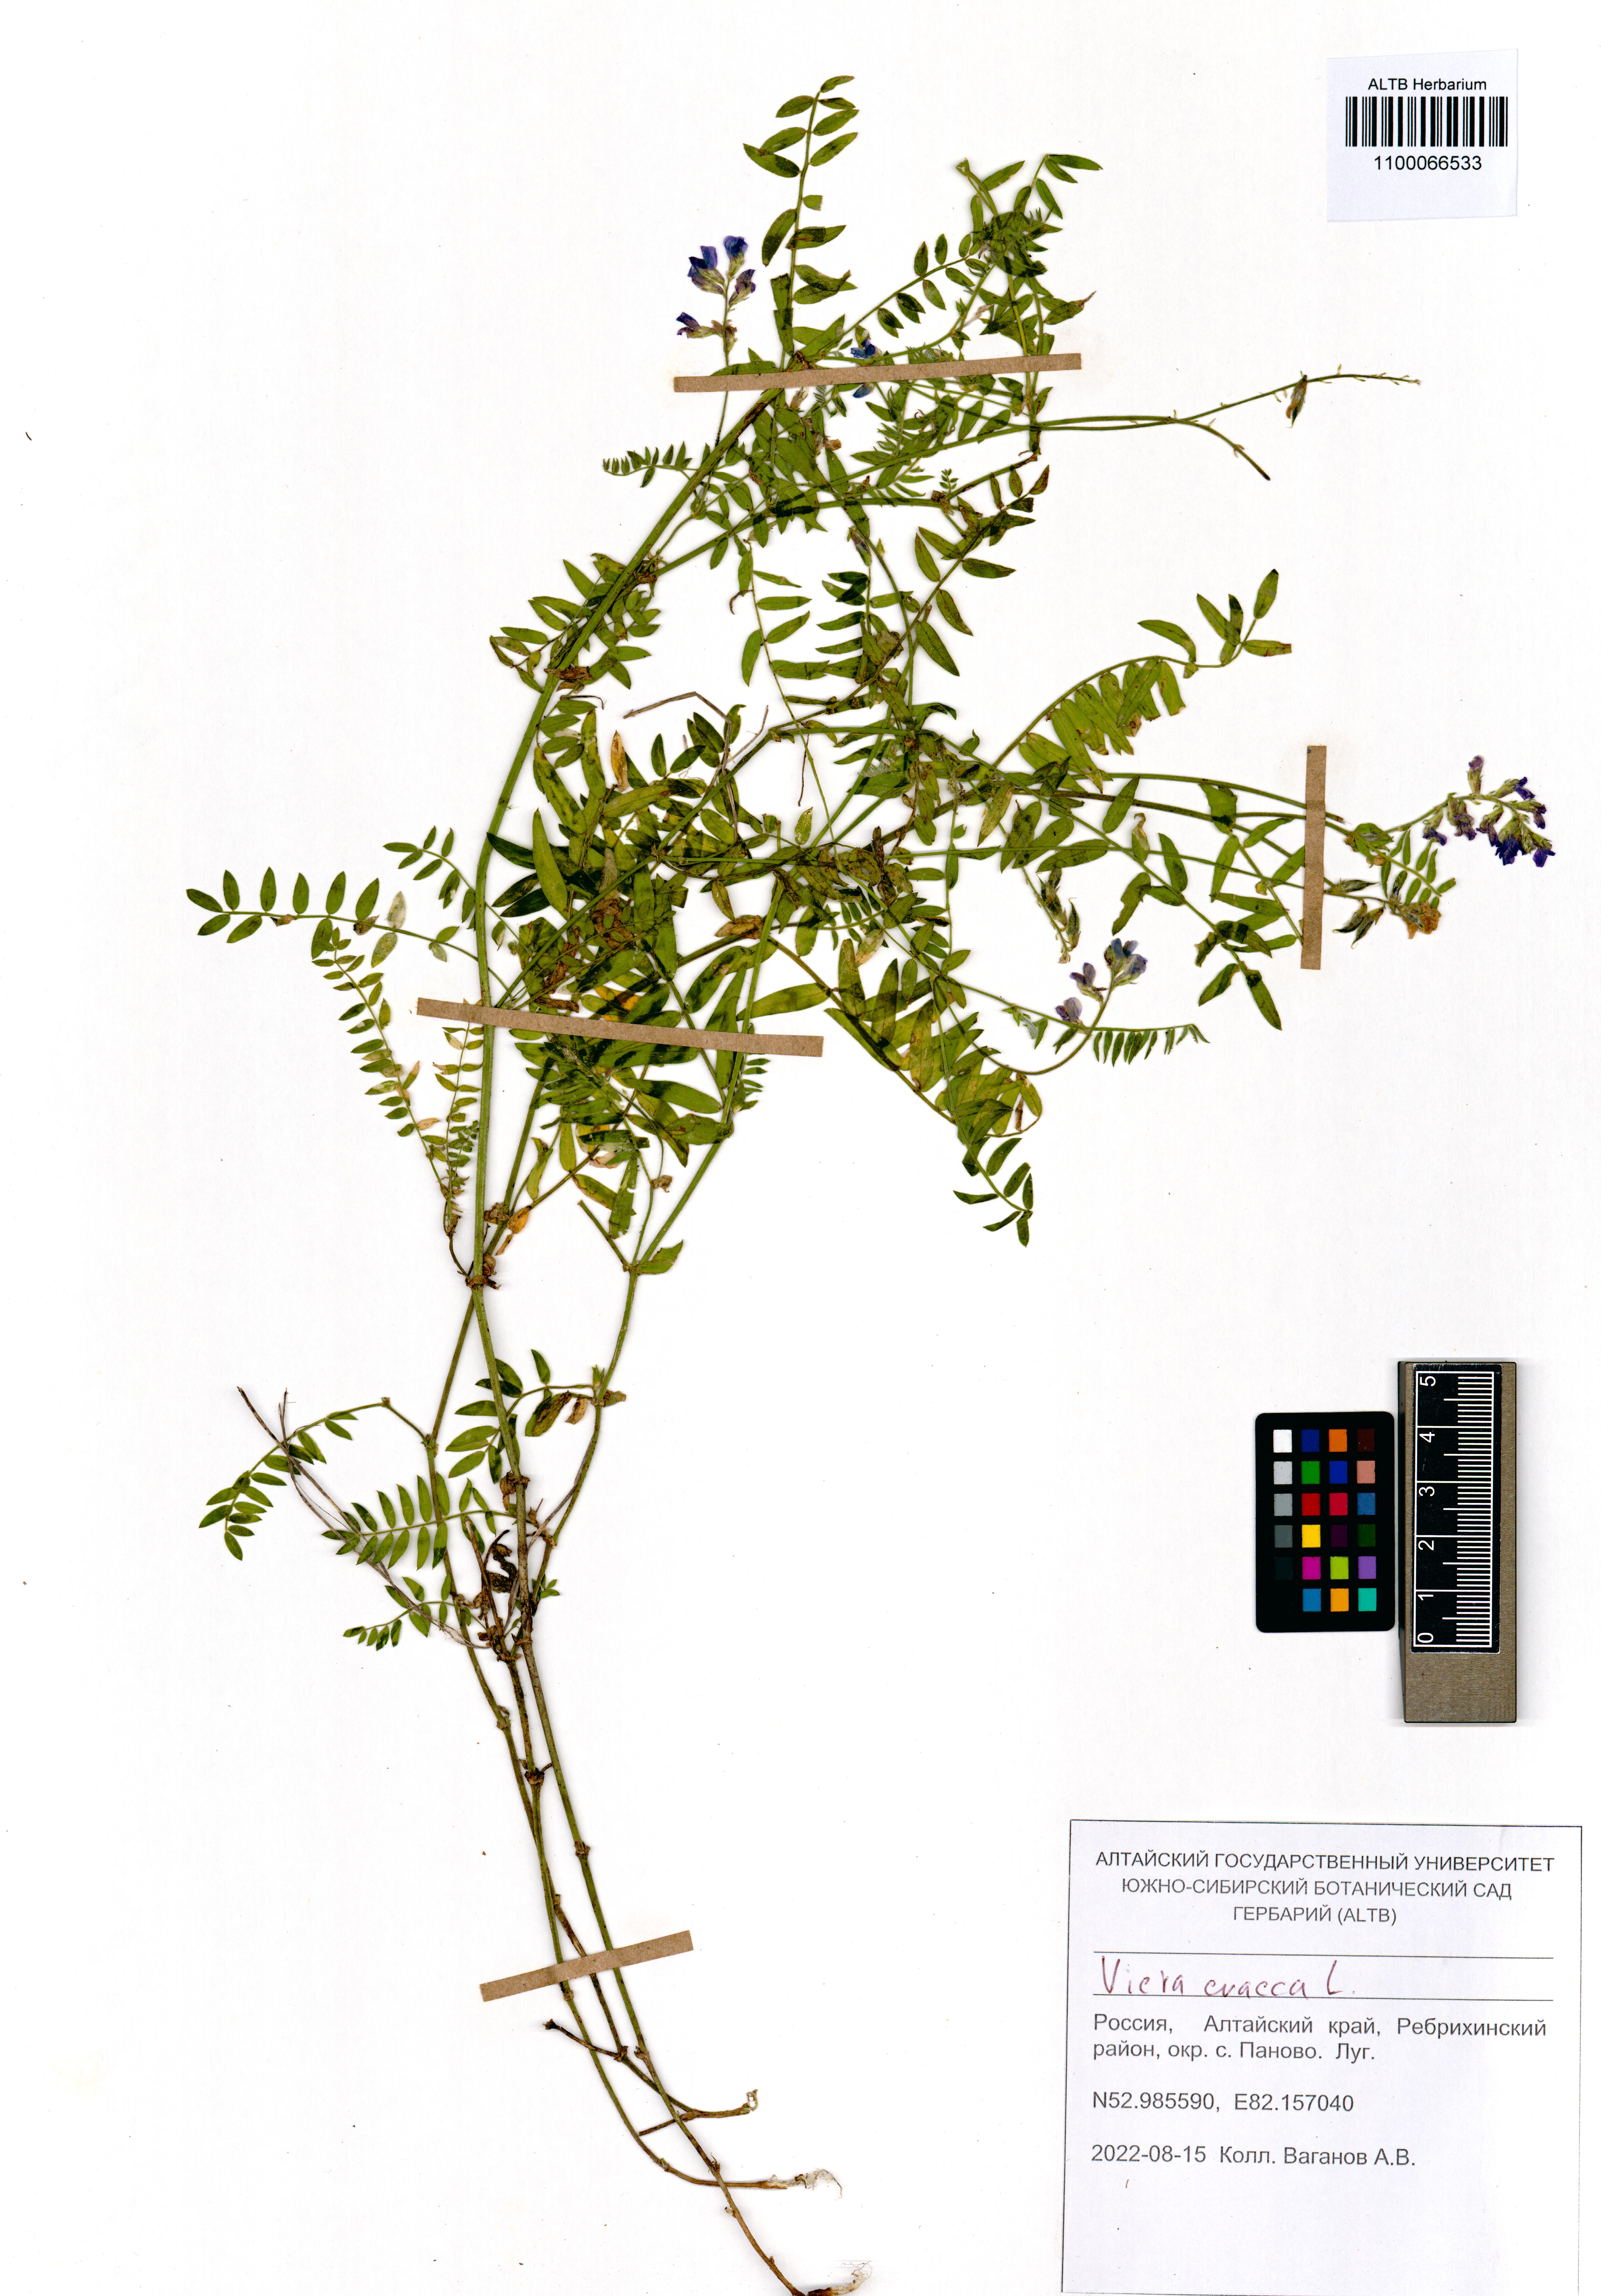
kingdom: Plantae
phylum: Tracheophyta
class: Magnoliopsida
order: Fabales
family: Fabaceae
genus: Vicia
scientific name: Vicia cracca
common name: Bird vetch
